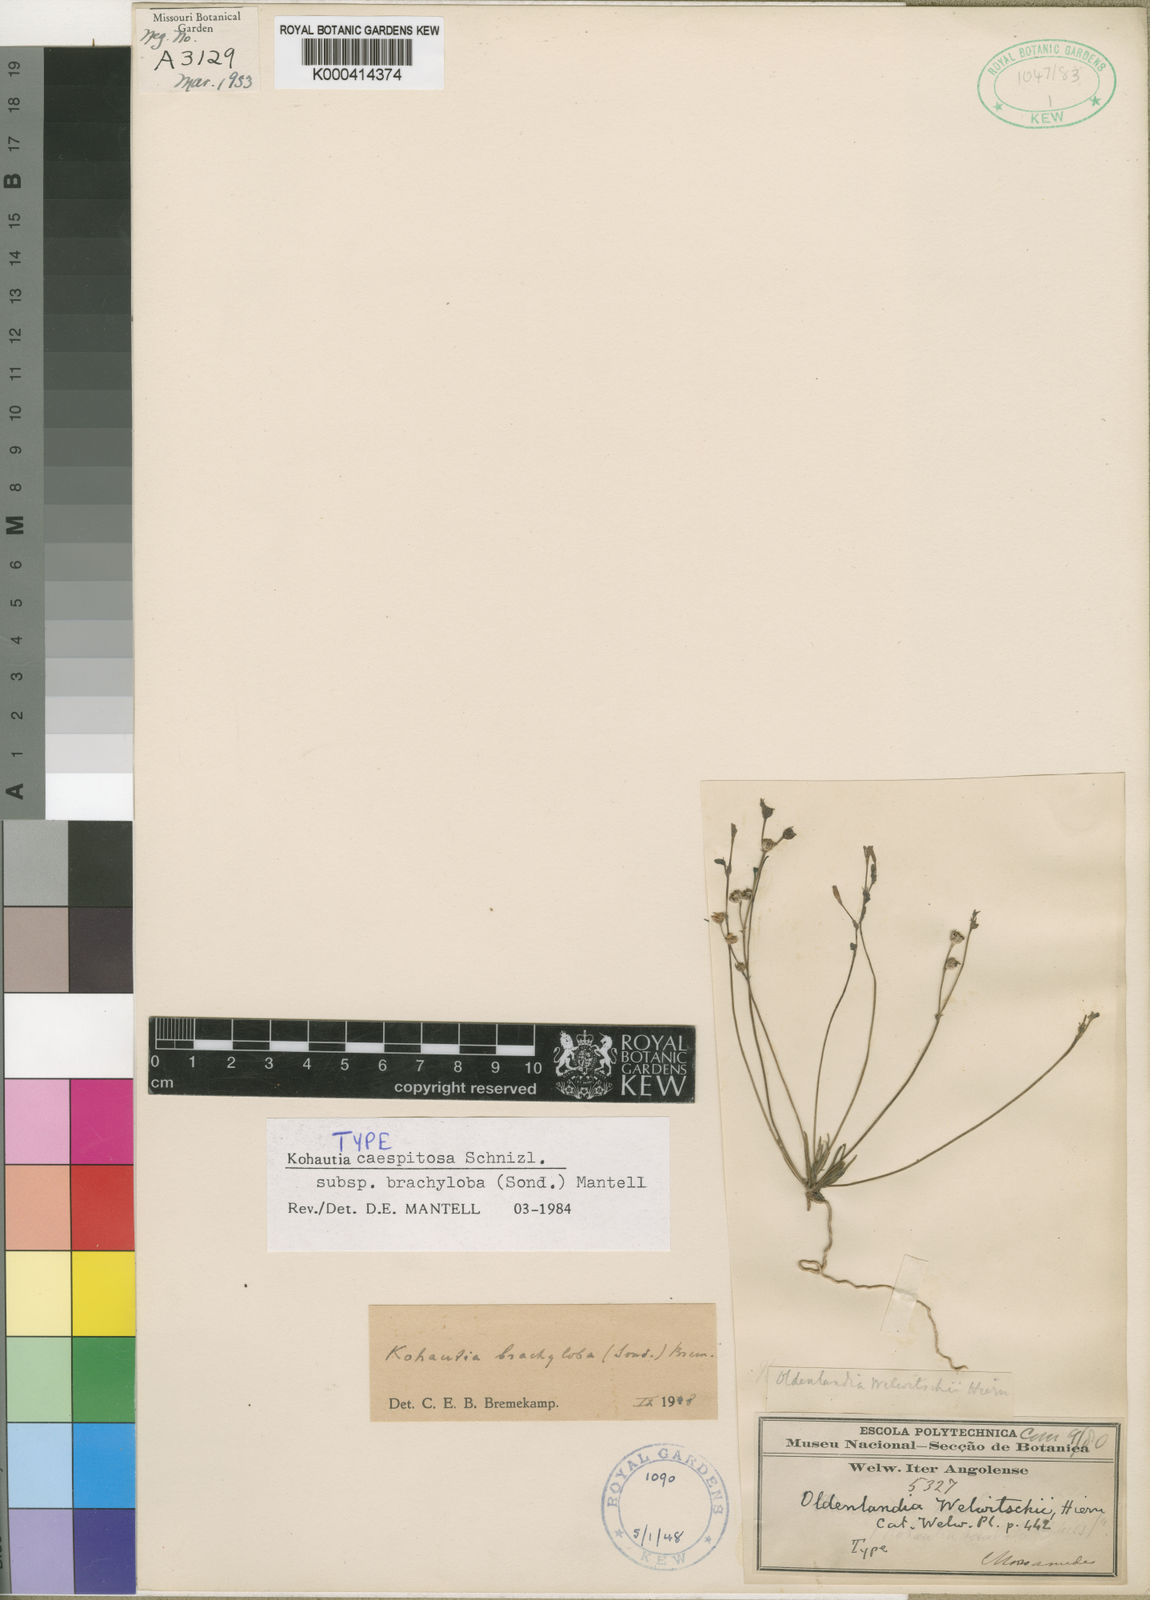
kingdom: Plantae
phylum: Tracheophyta
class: Magnoliopsida
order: Gentianales
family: Rubiaceae
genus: Kohautia
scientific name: Kohautia caespitosa
